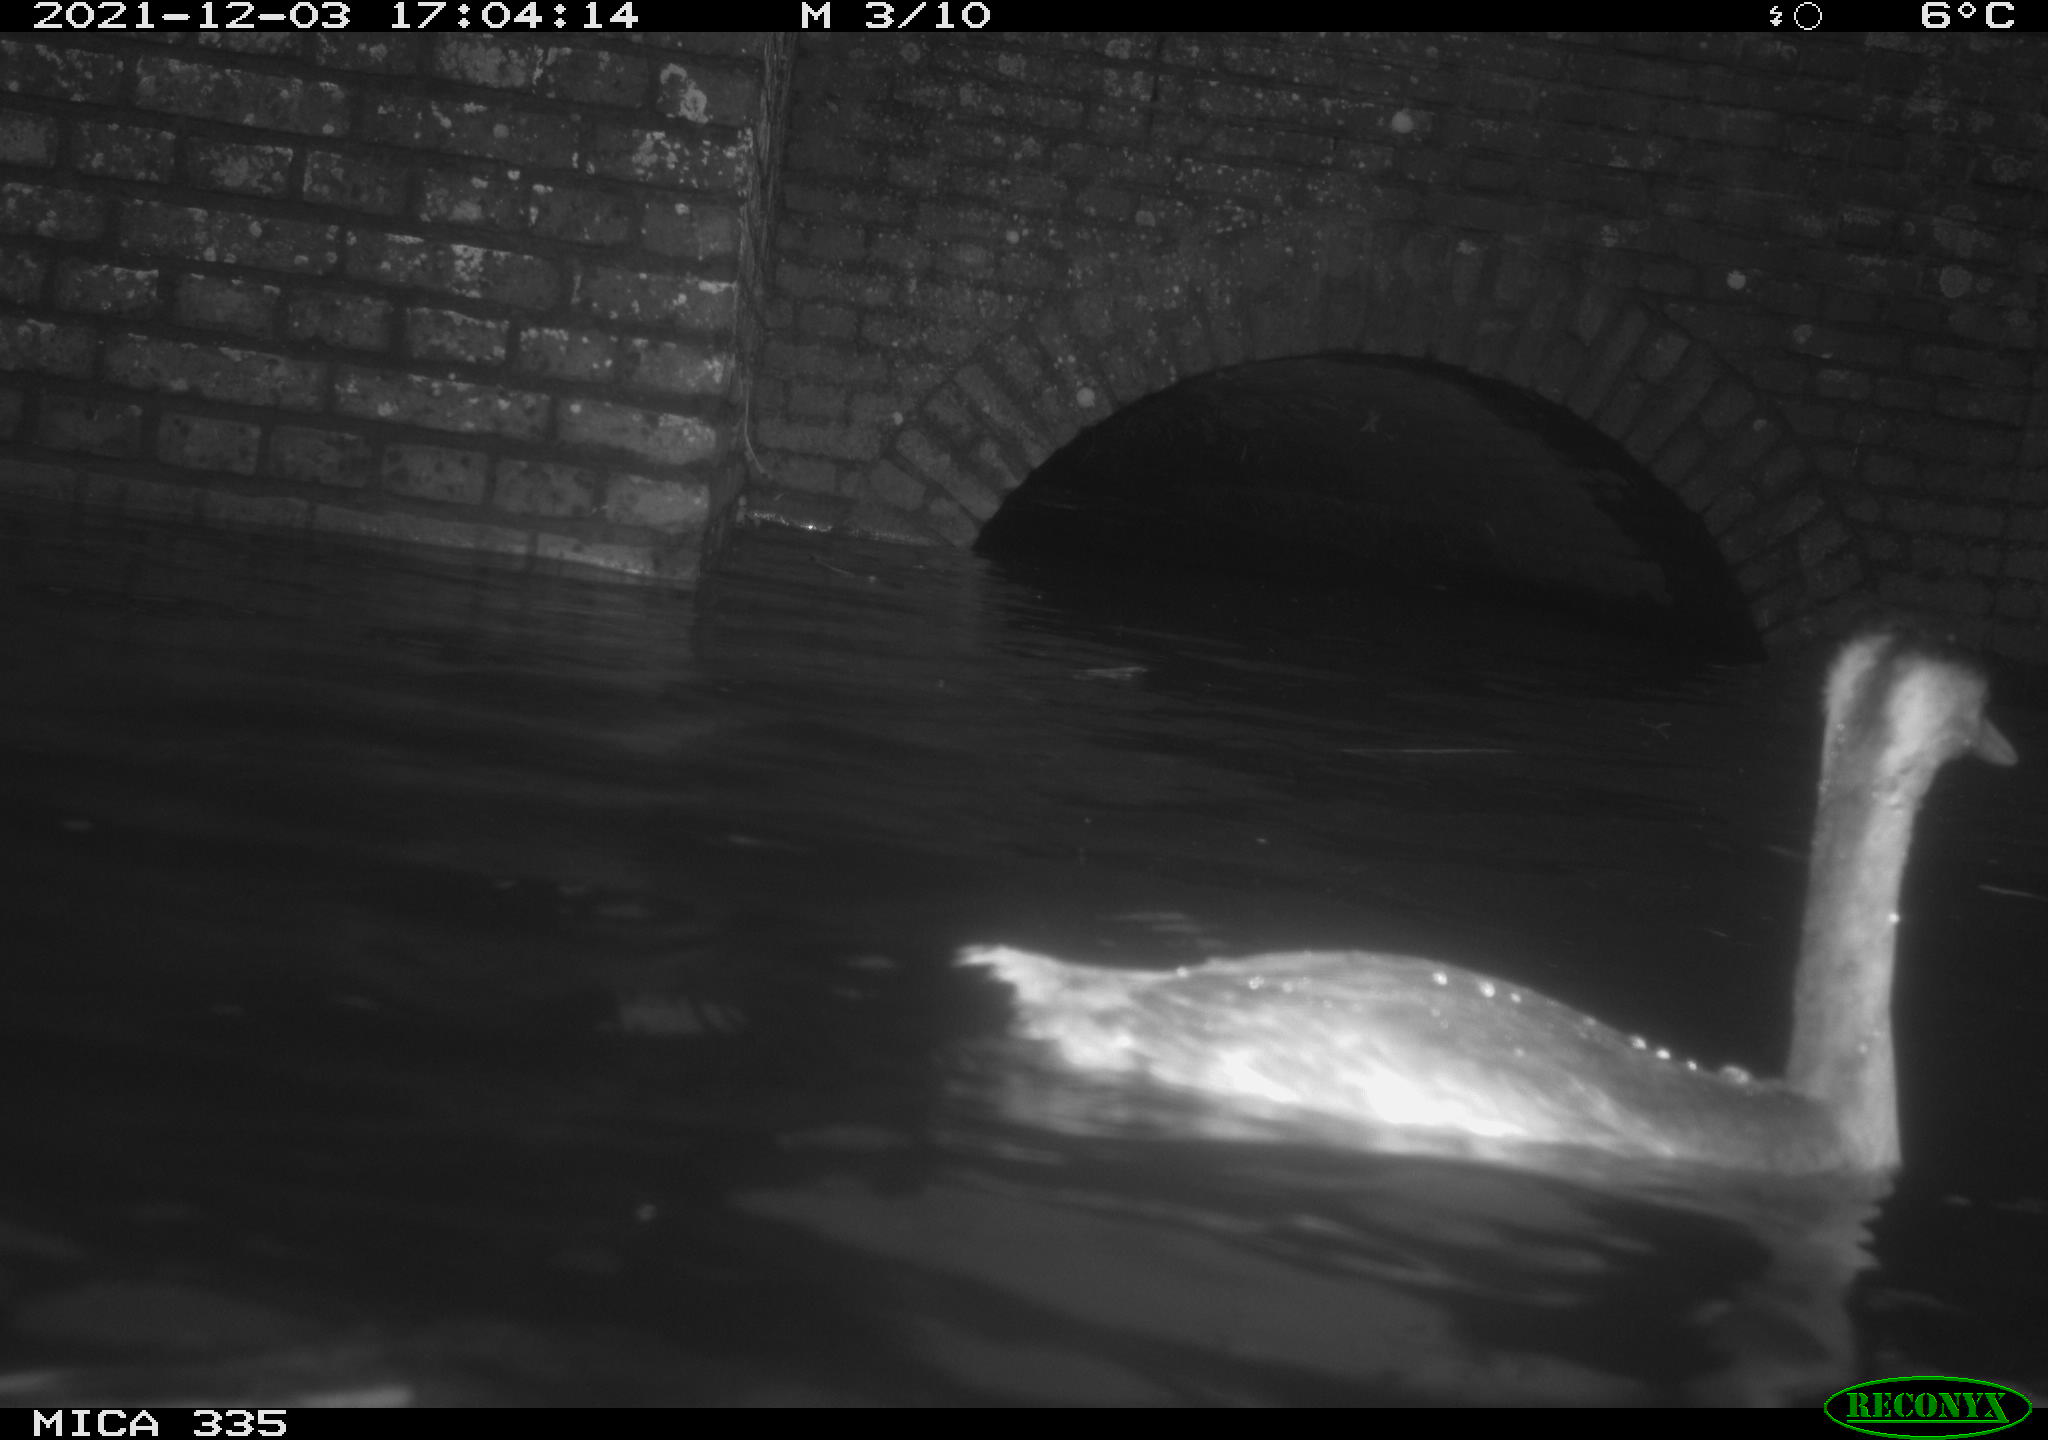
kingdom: Animalia
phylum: Chordata
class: Aves
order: Podicipediformes
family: Podicipedidae
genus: Podiceps
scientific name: Podiceps cristatus
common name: Great crested grebe
